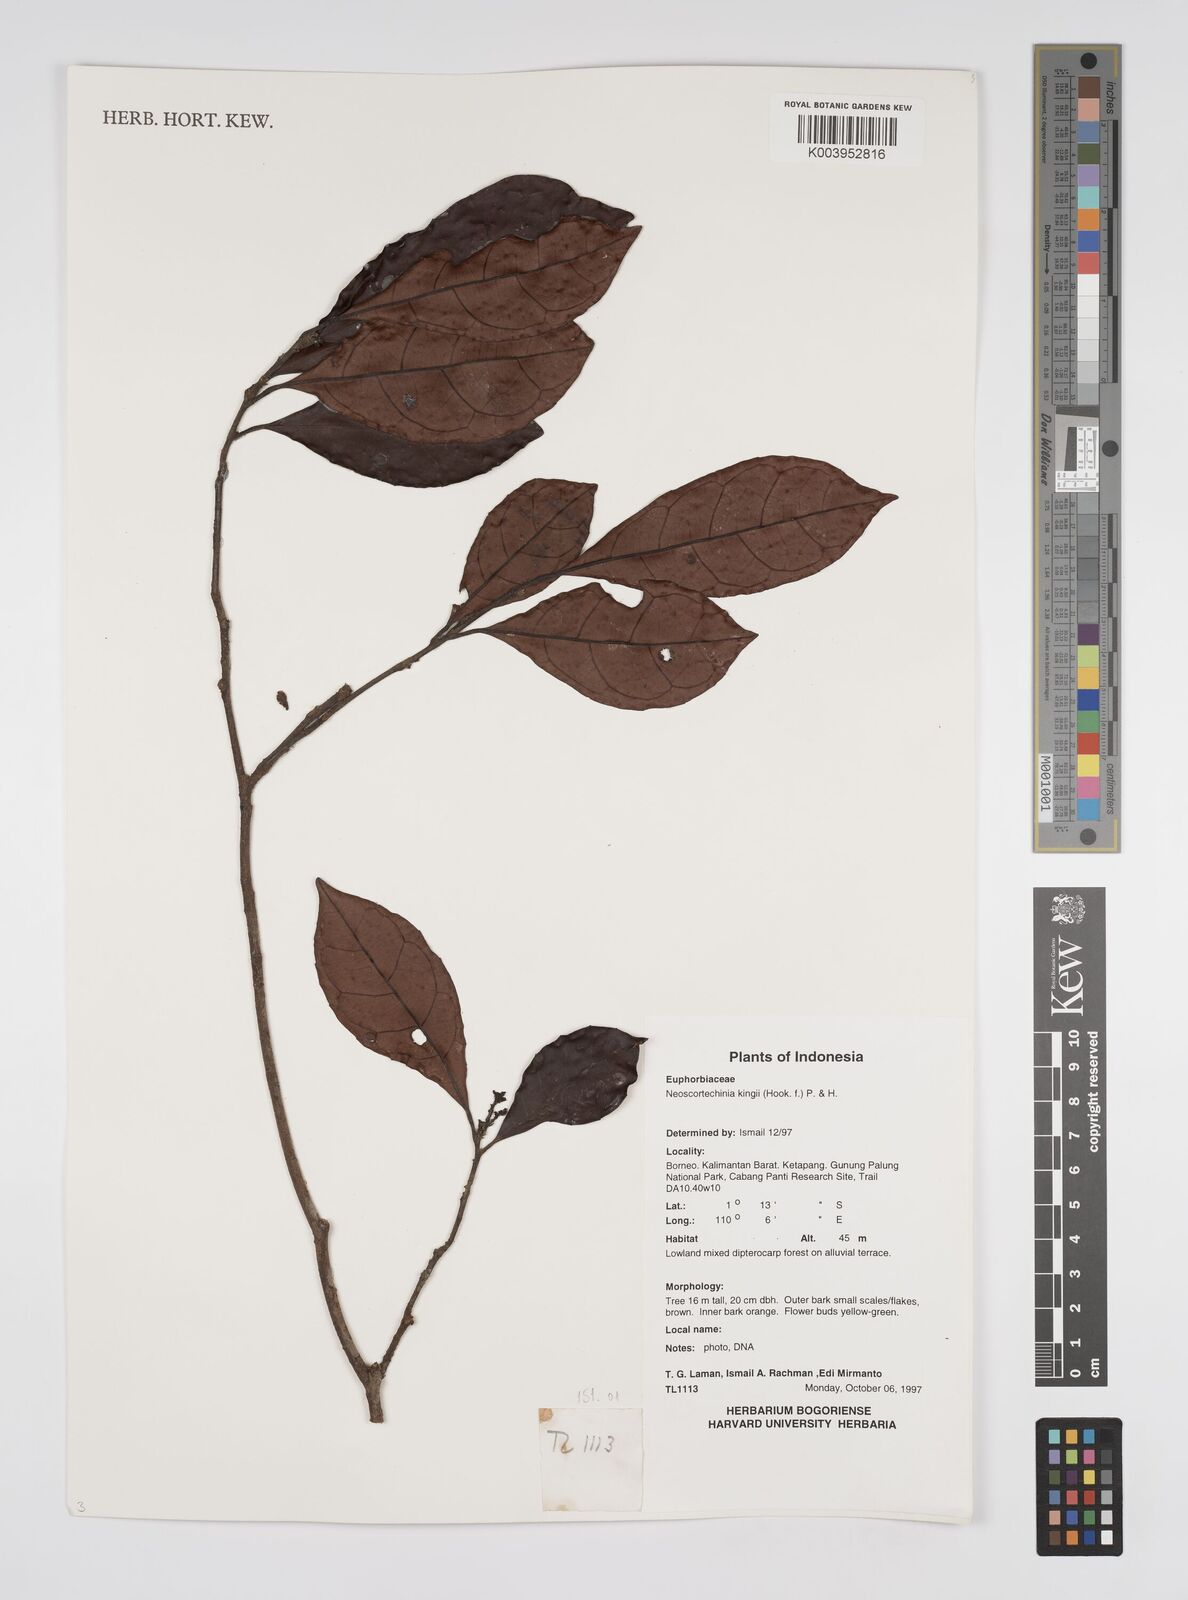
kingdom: Plantae
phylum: Tracheophyta
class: Magnoliopsida
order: Malpighiales
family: Euphorbiaceae
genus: Neoscortechinia
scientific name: Neoscortechinia kingii
